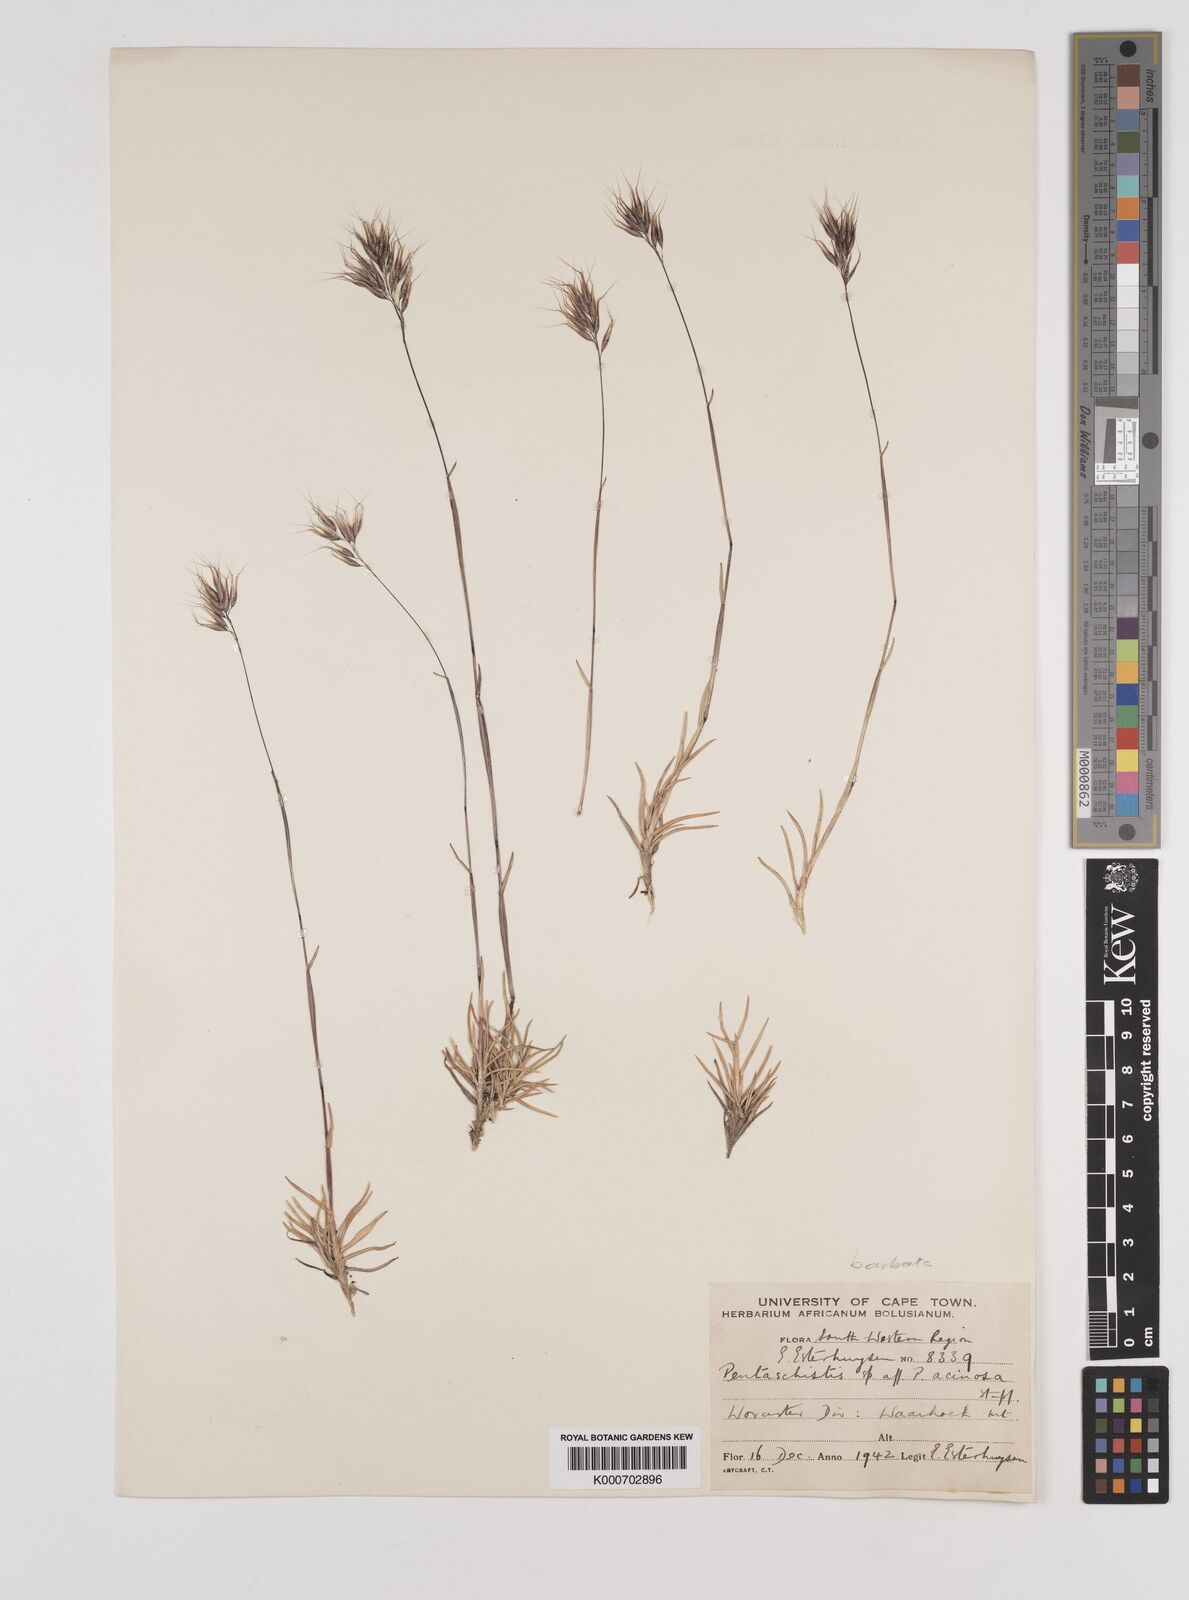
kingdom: Plantae
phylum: Tracheophyta
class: Liliopsida
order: Poales
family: Poaceae
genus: Pentameris
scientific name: Pentameris barbata
